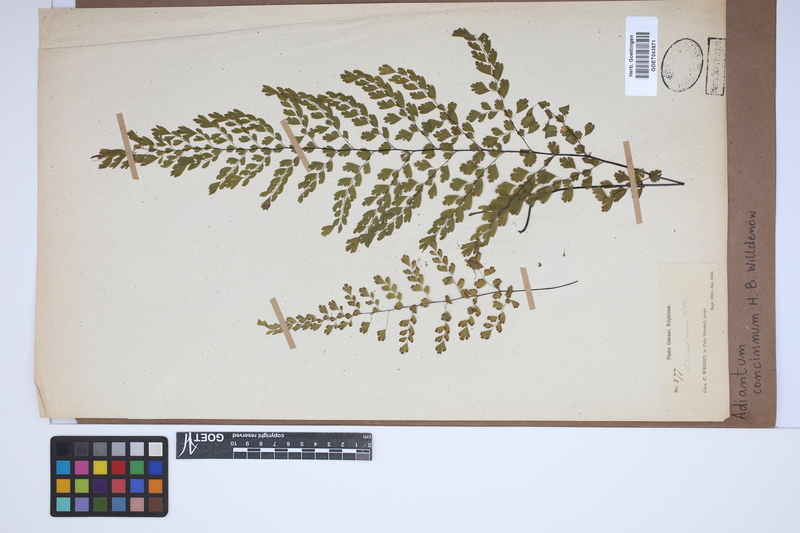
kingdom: Plantae
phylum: Tracheophyta
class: Polypodiopsida
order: Polypodiales
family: Pteridaceae
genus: Adiantum
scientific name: Adiantum concinnum
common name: Brittle maidenhair fern
